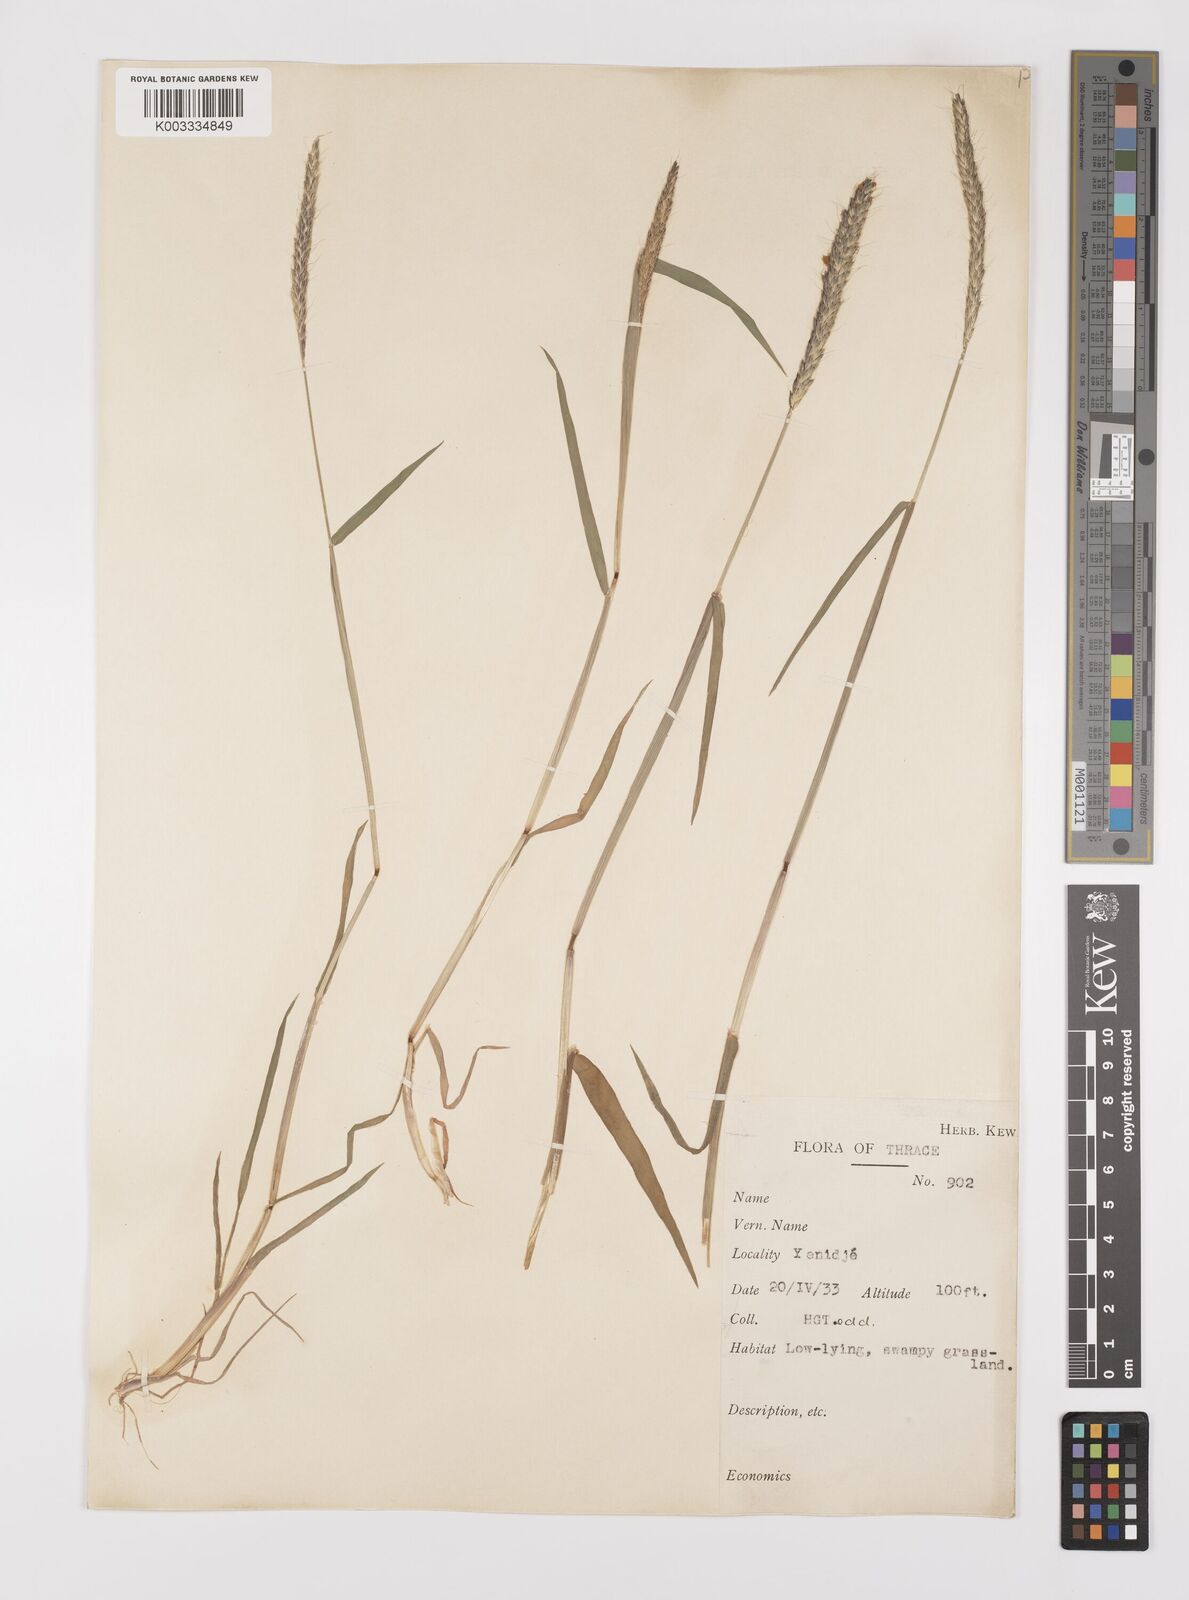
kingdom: Plantae
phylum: Tracheophyta
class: Liliopsida
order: Poales
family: Poaceae
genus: Alopecurus
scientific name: Alopecurus myosuroides
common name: Black-grass
